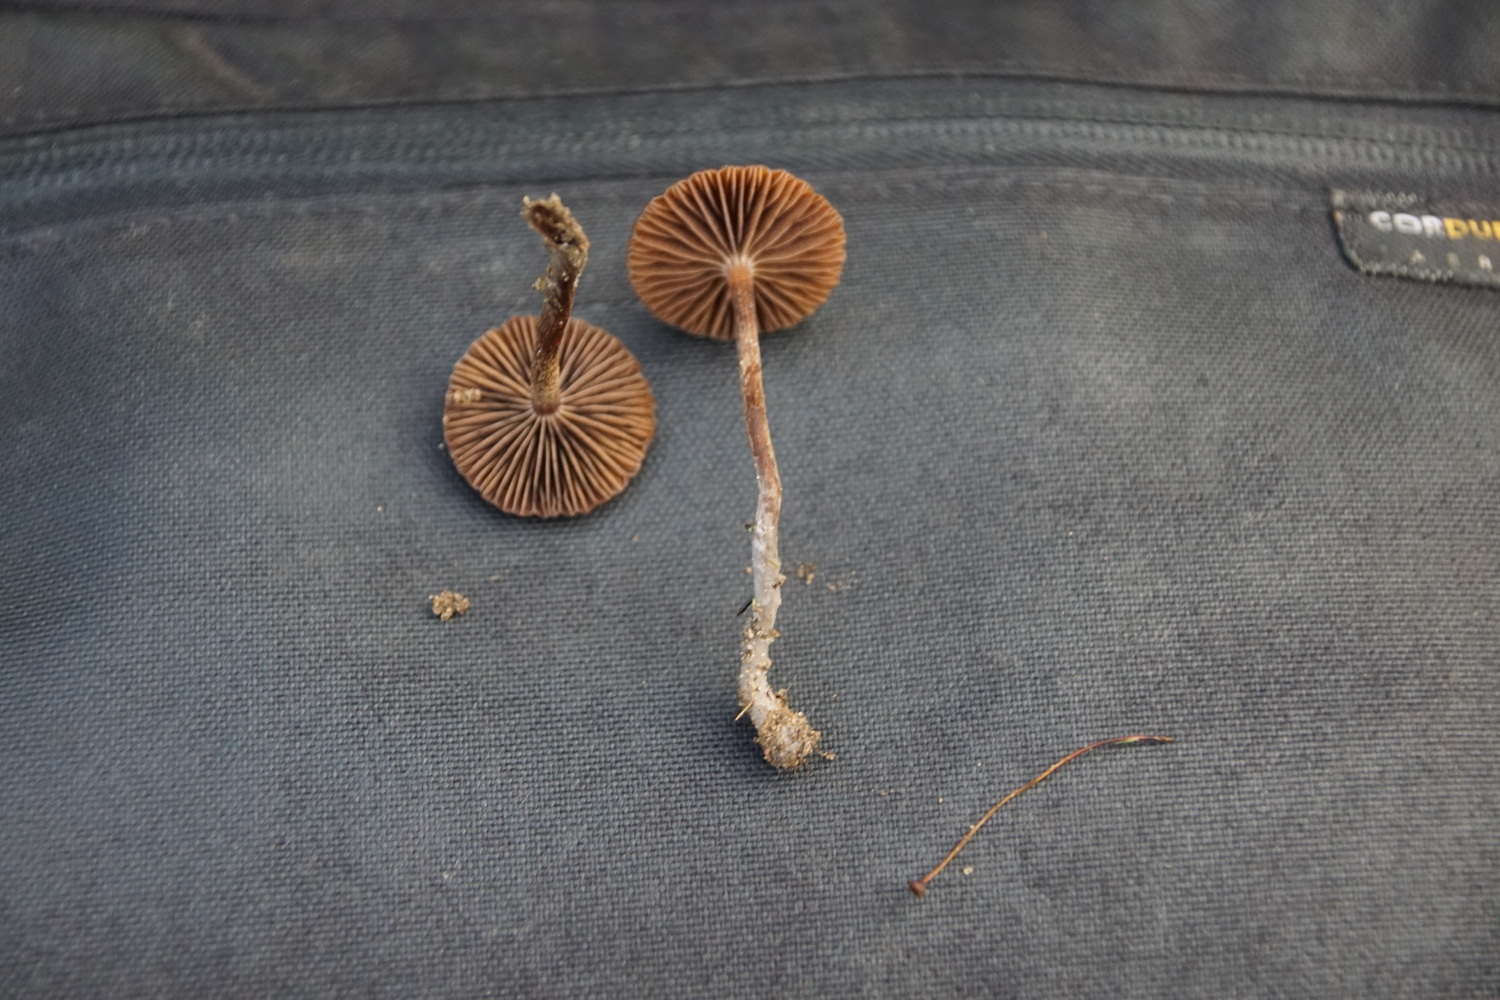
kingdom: Fungi
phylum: Basidiomycota
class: Agaricomycetes
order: Agaricales
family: Strophariaceae
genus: Deconica
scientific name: Deconica montana
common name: rødbrun stråhat
